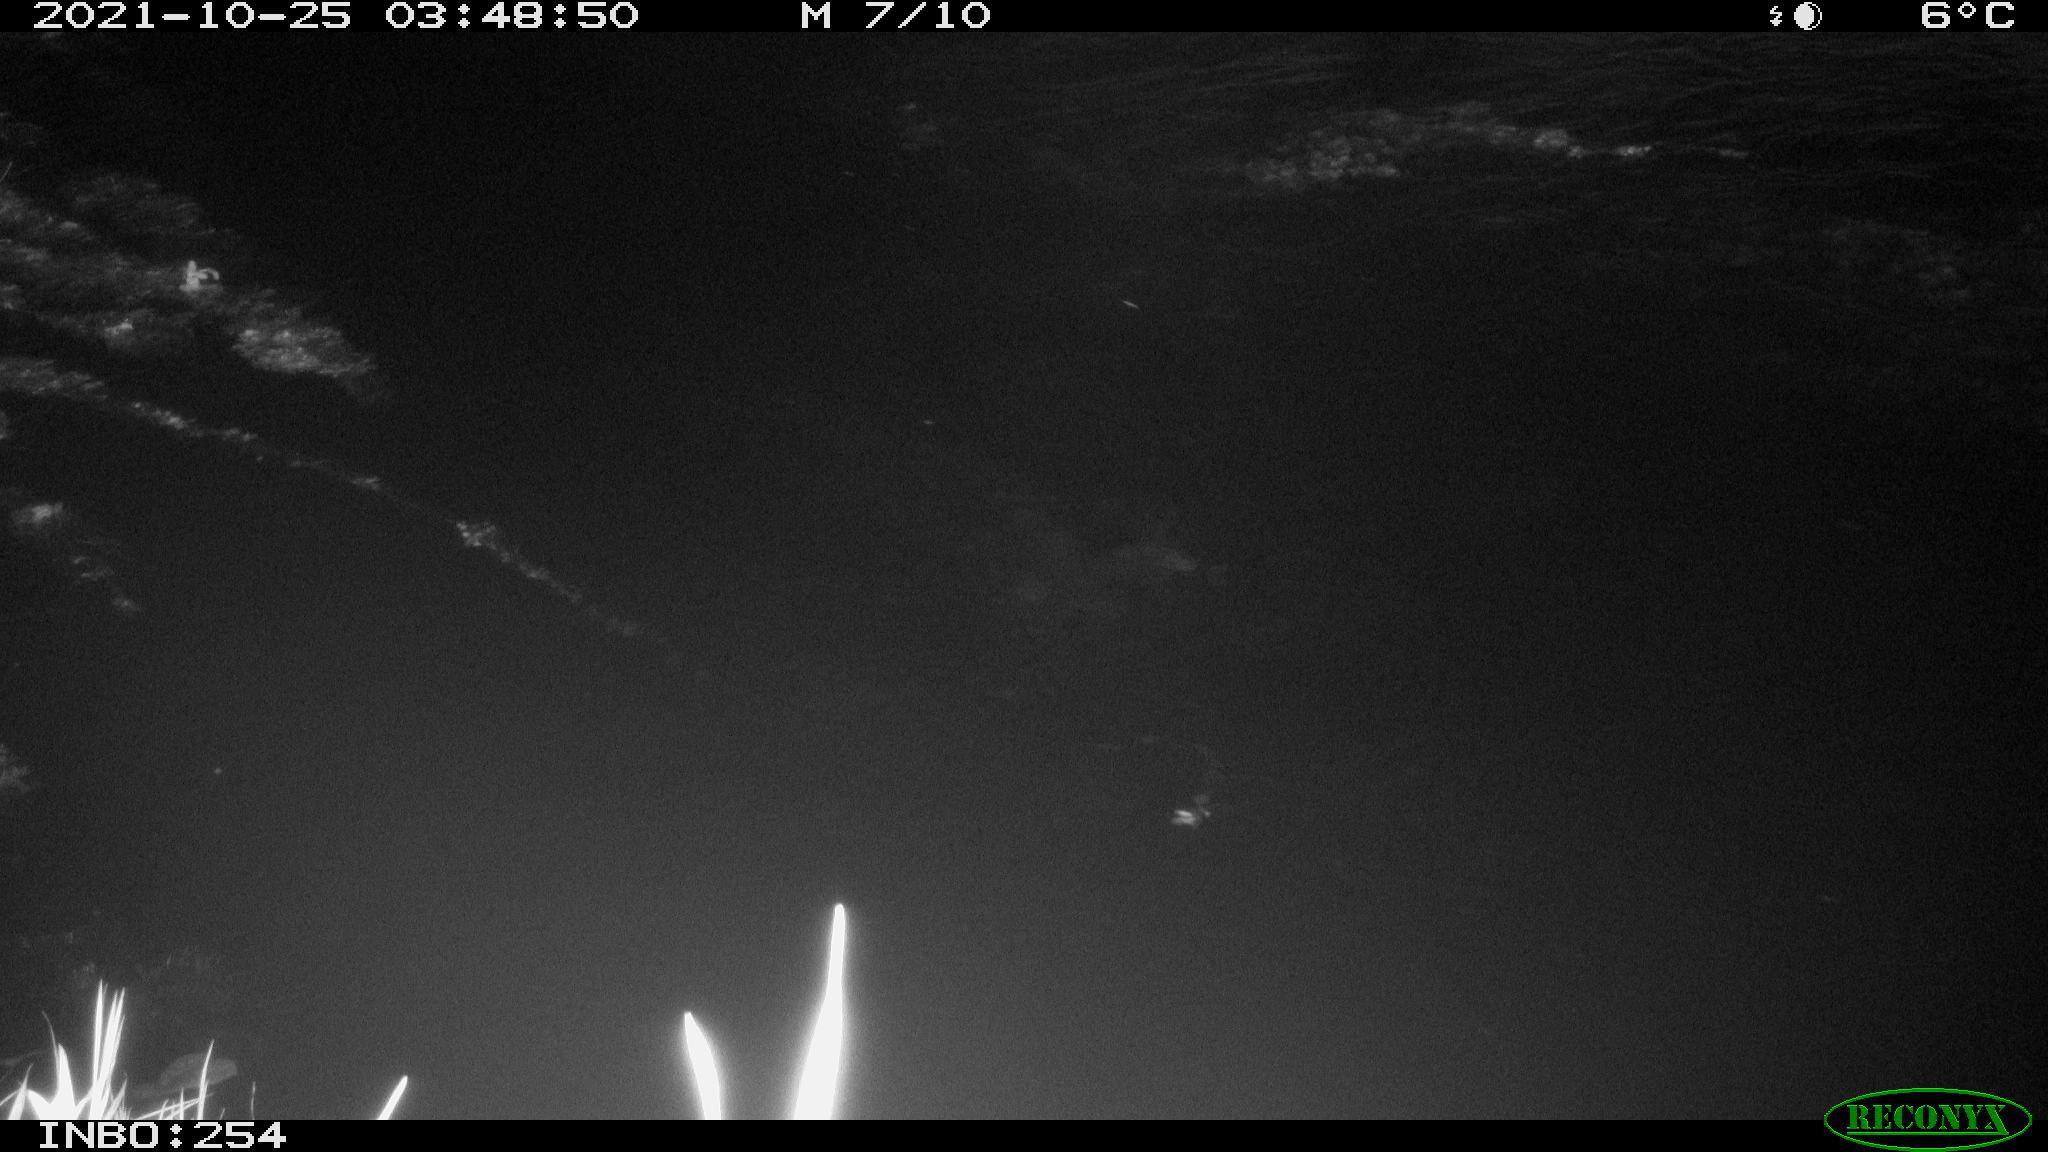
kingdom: Animalia
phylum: Chordata
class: Mammalia
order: Rodentia
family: Muridae
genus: Rattus
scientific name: Rattus norvegicus
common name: Brown rat
